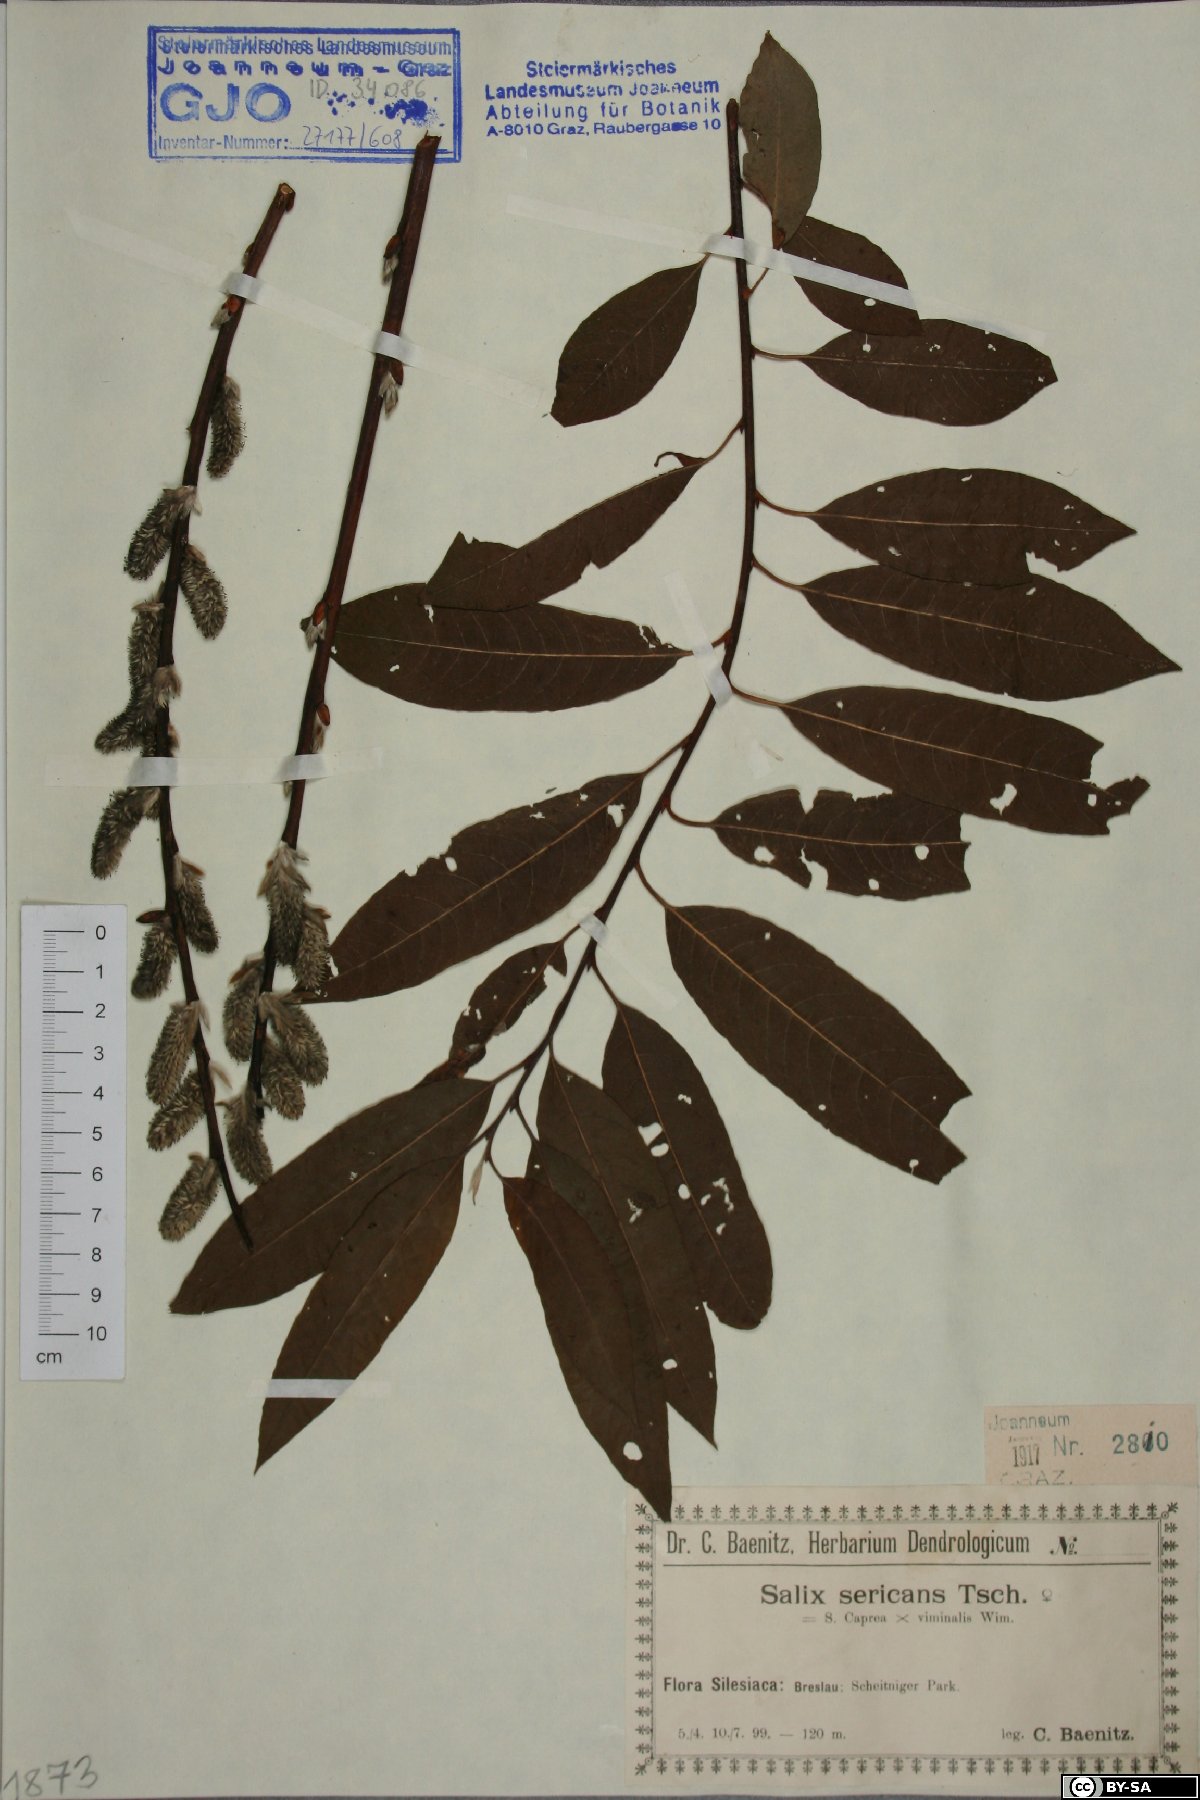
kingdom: Plantae
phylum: Tracheophyta
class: Magnoliopsida
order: Malpighiales
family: Salicaceae
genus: Salix
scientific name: Salix gmelinii
